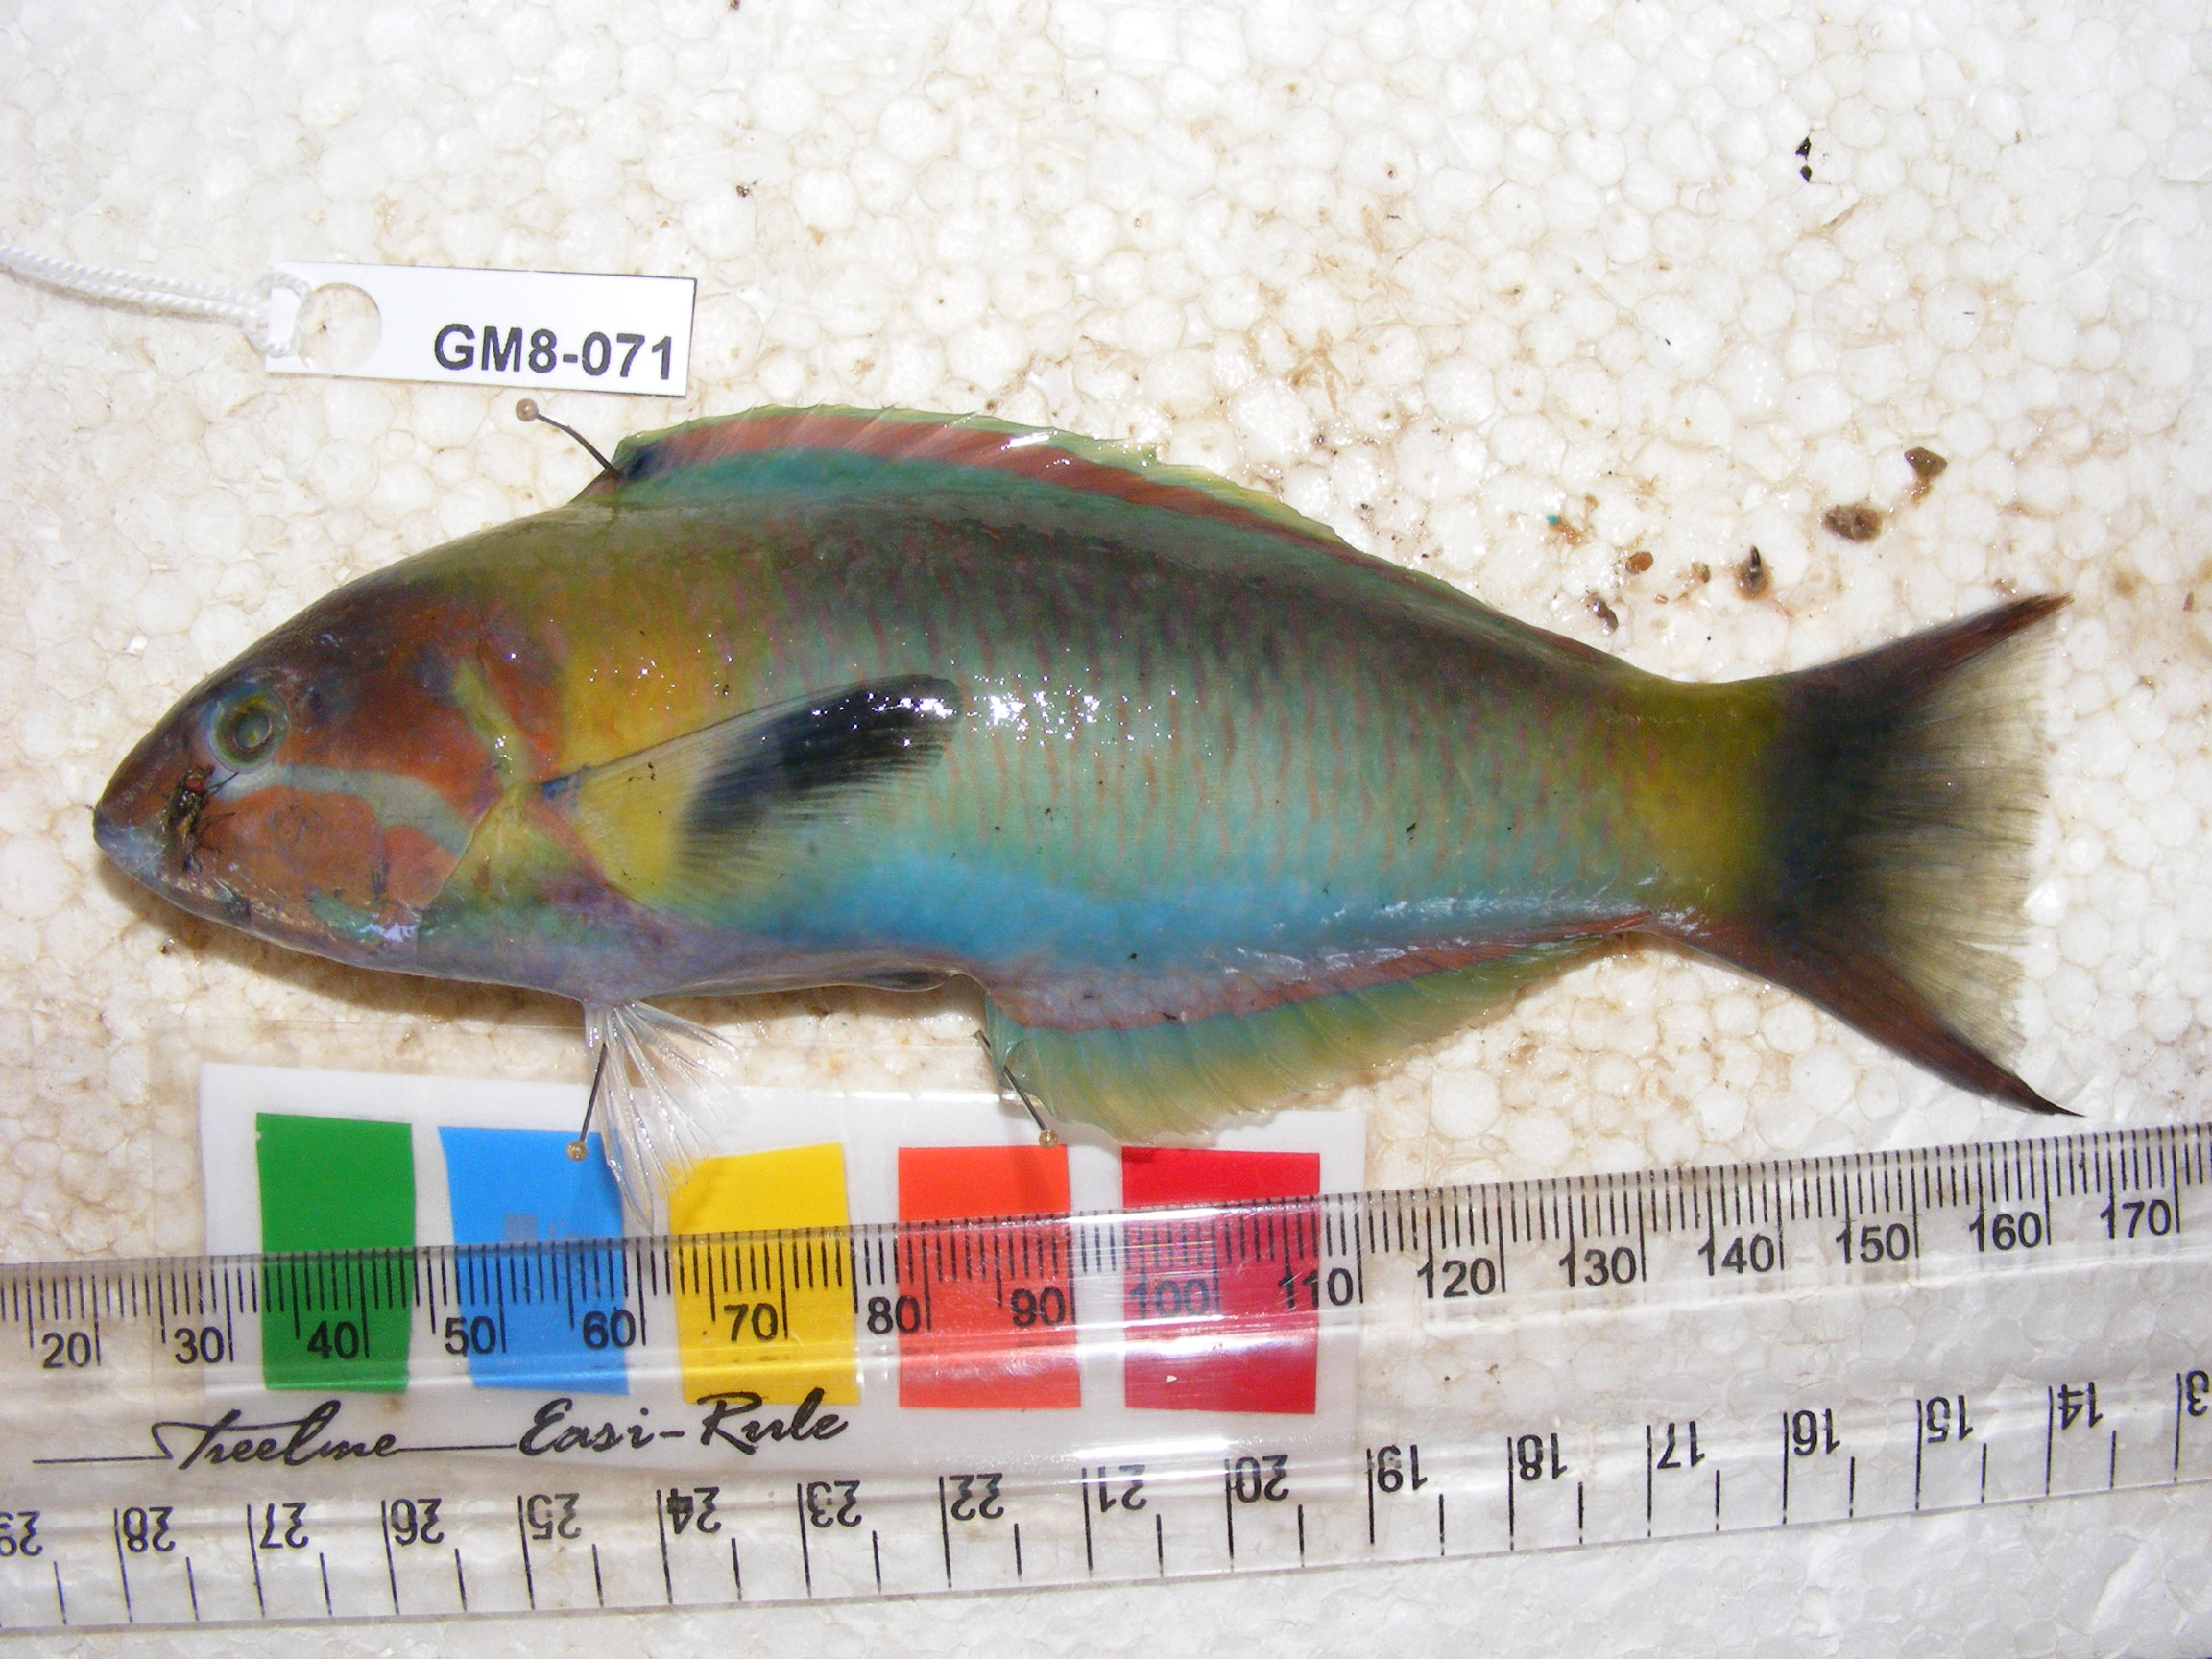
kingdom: Animalia
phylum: Chordata
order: Perciformes
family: Labridae
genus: Thalassoma
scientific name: Thalassoma genivittatum
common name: Red-cheek wrasse
